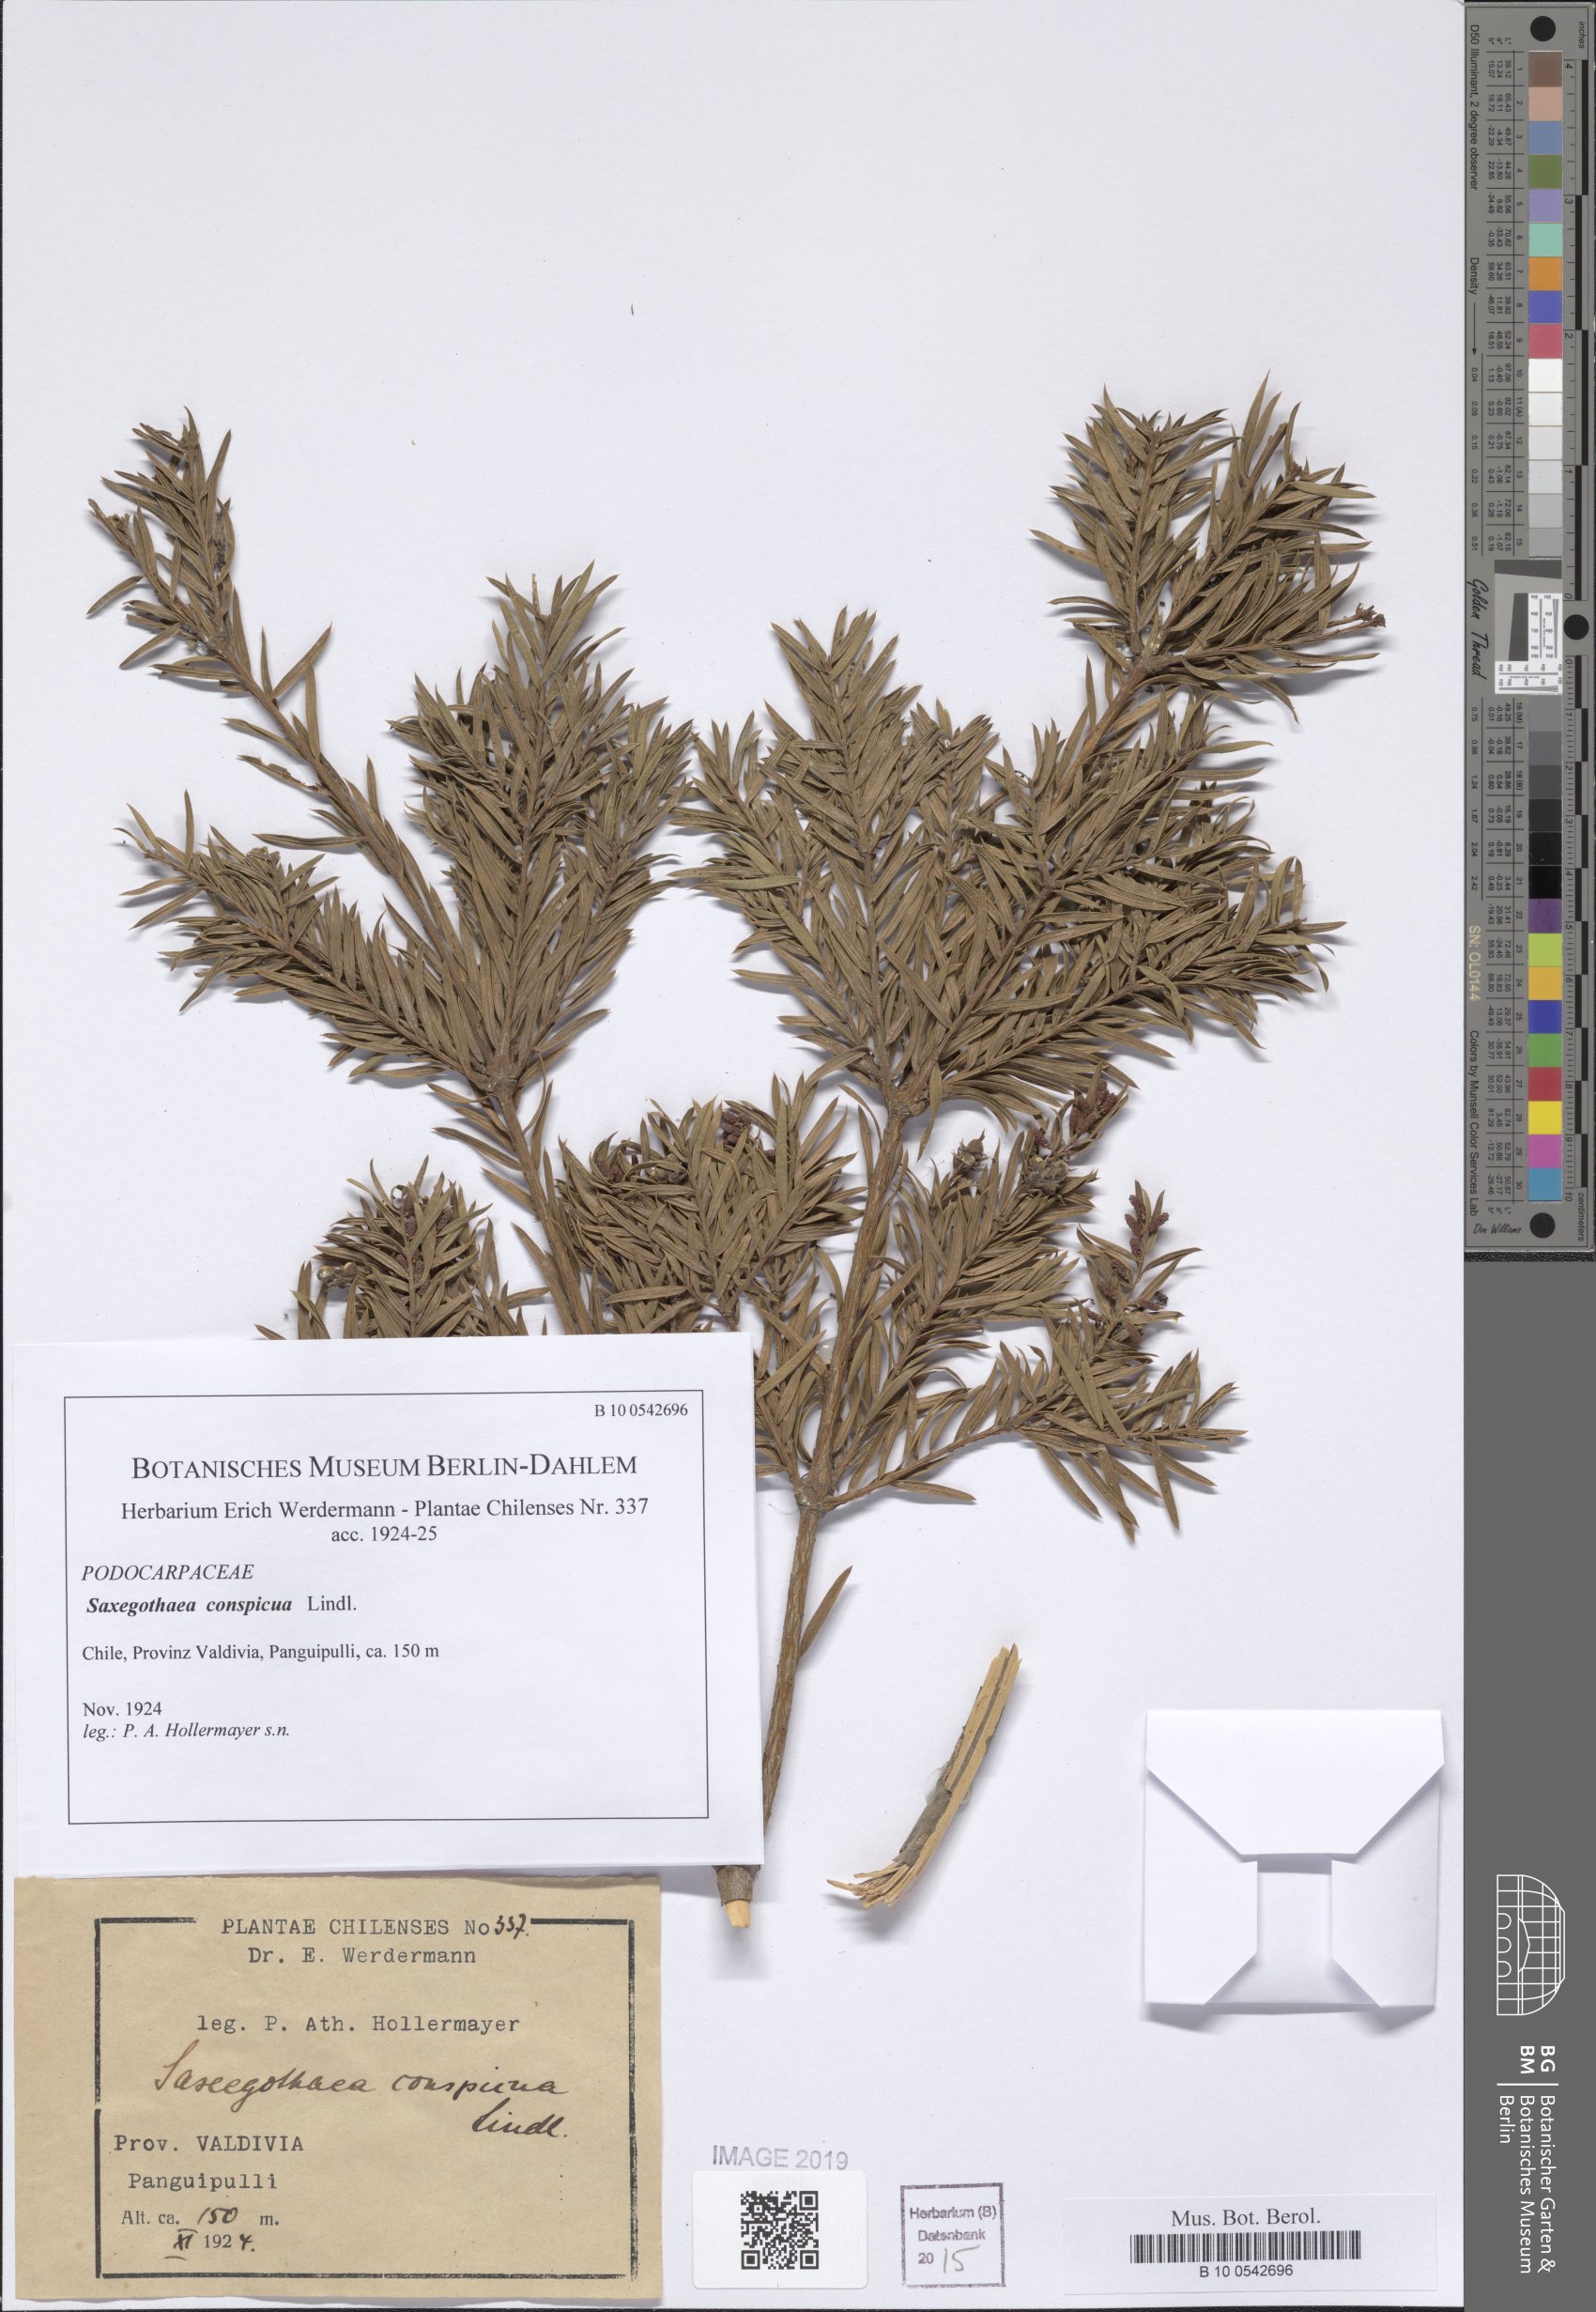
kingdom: Plantae
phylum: Tracheophyta
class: Pinopsida
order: Pinales
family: Podocarpaceae
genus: Saxegothaea
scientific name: Saxegothaea conspicua
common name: Prince albert's yew
